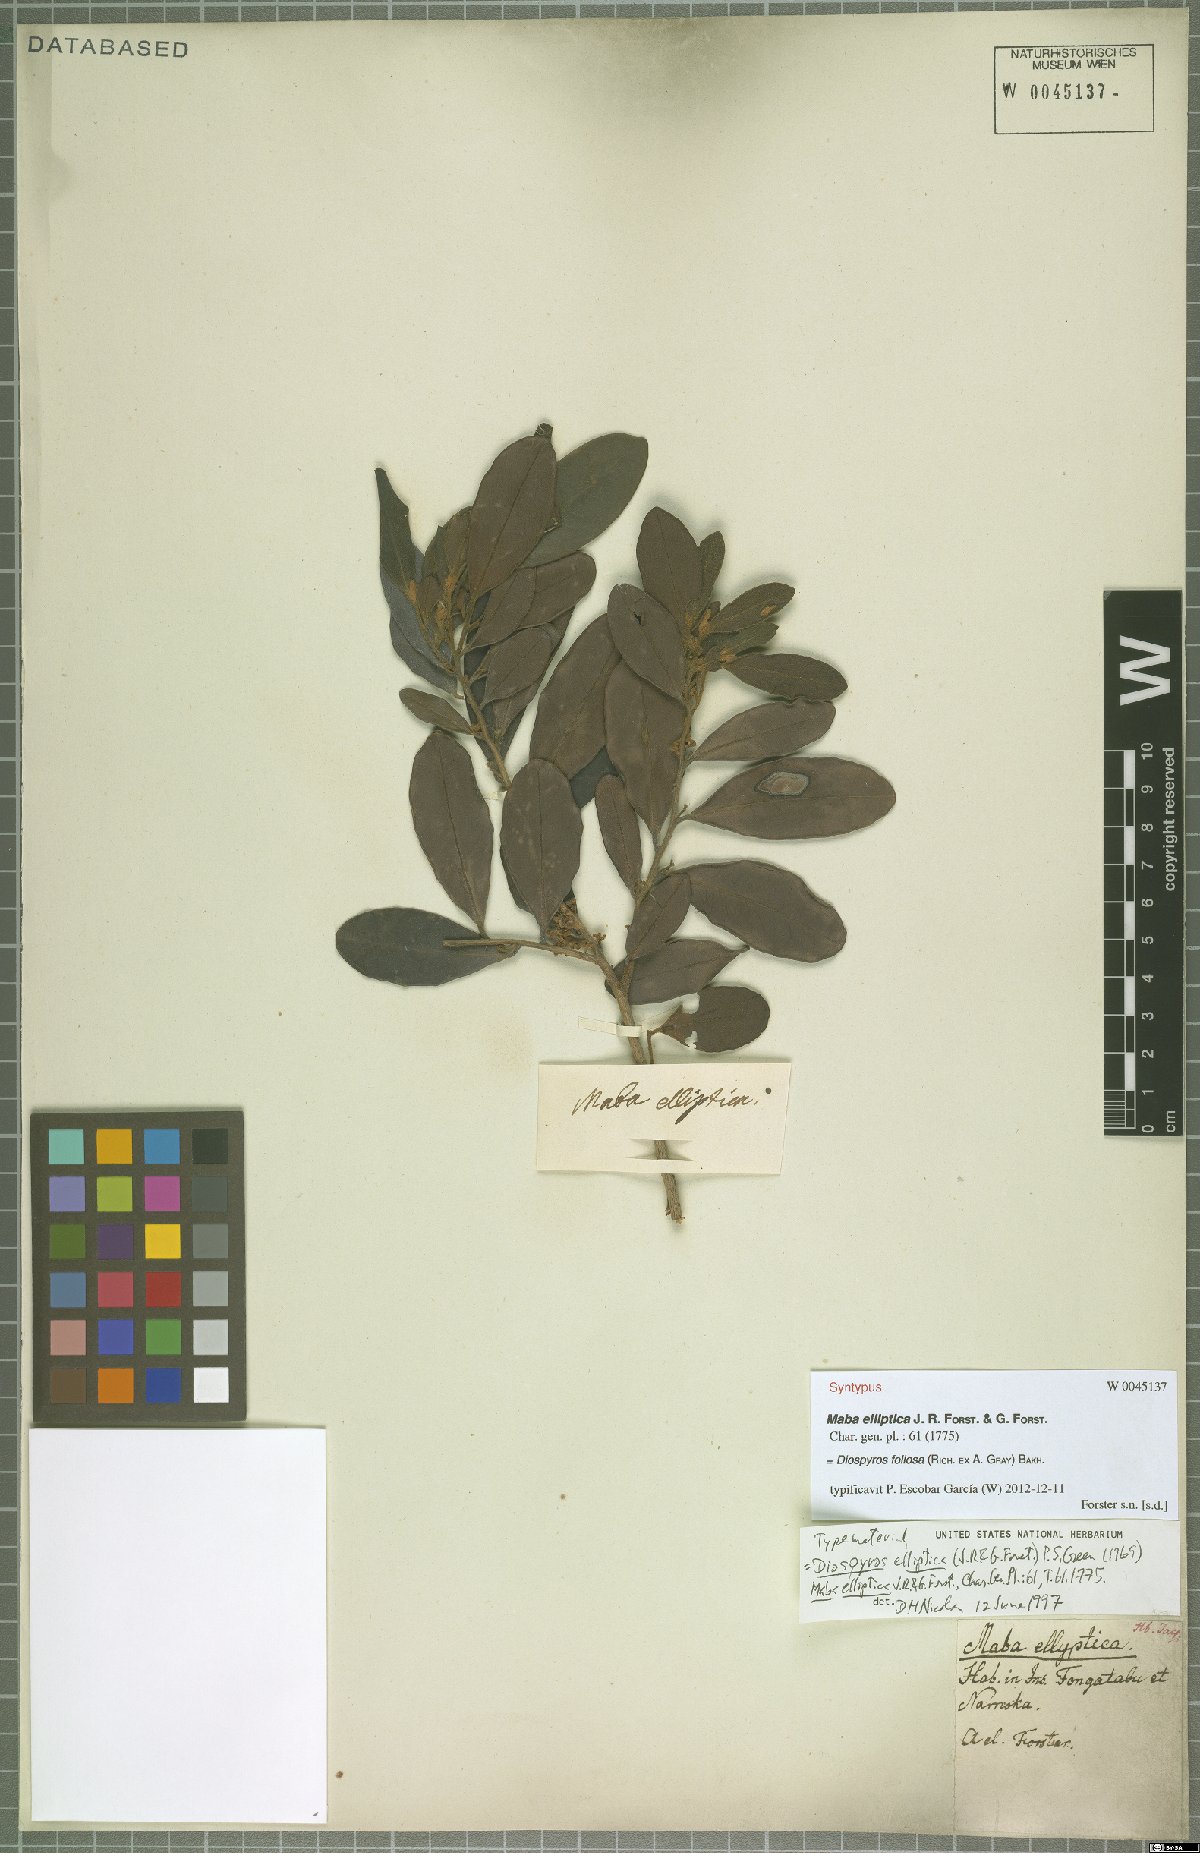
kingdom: Plantae
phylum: Tracheophyta
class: Magnoliopsida
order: Ericales
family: Ebenaceae
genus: Diospyros
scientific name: Diospyros foliosa
